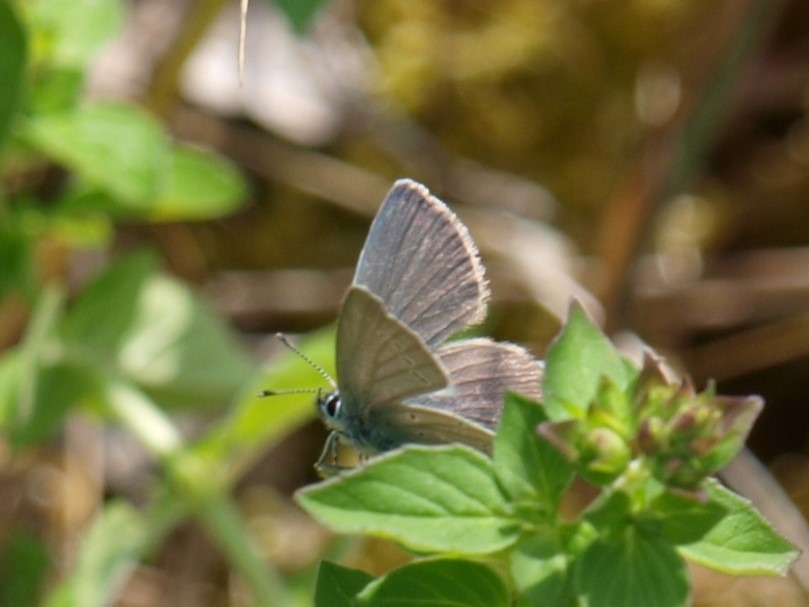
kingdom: Animalia
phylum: Arthropoda
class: Insecta
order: Lepidoptera
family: Lycaenidae
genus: Cupido
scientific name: Cupido minimus
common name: Dværgblåfugl
